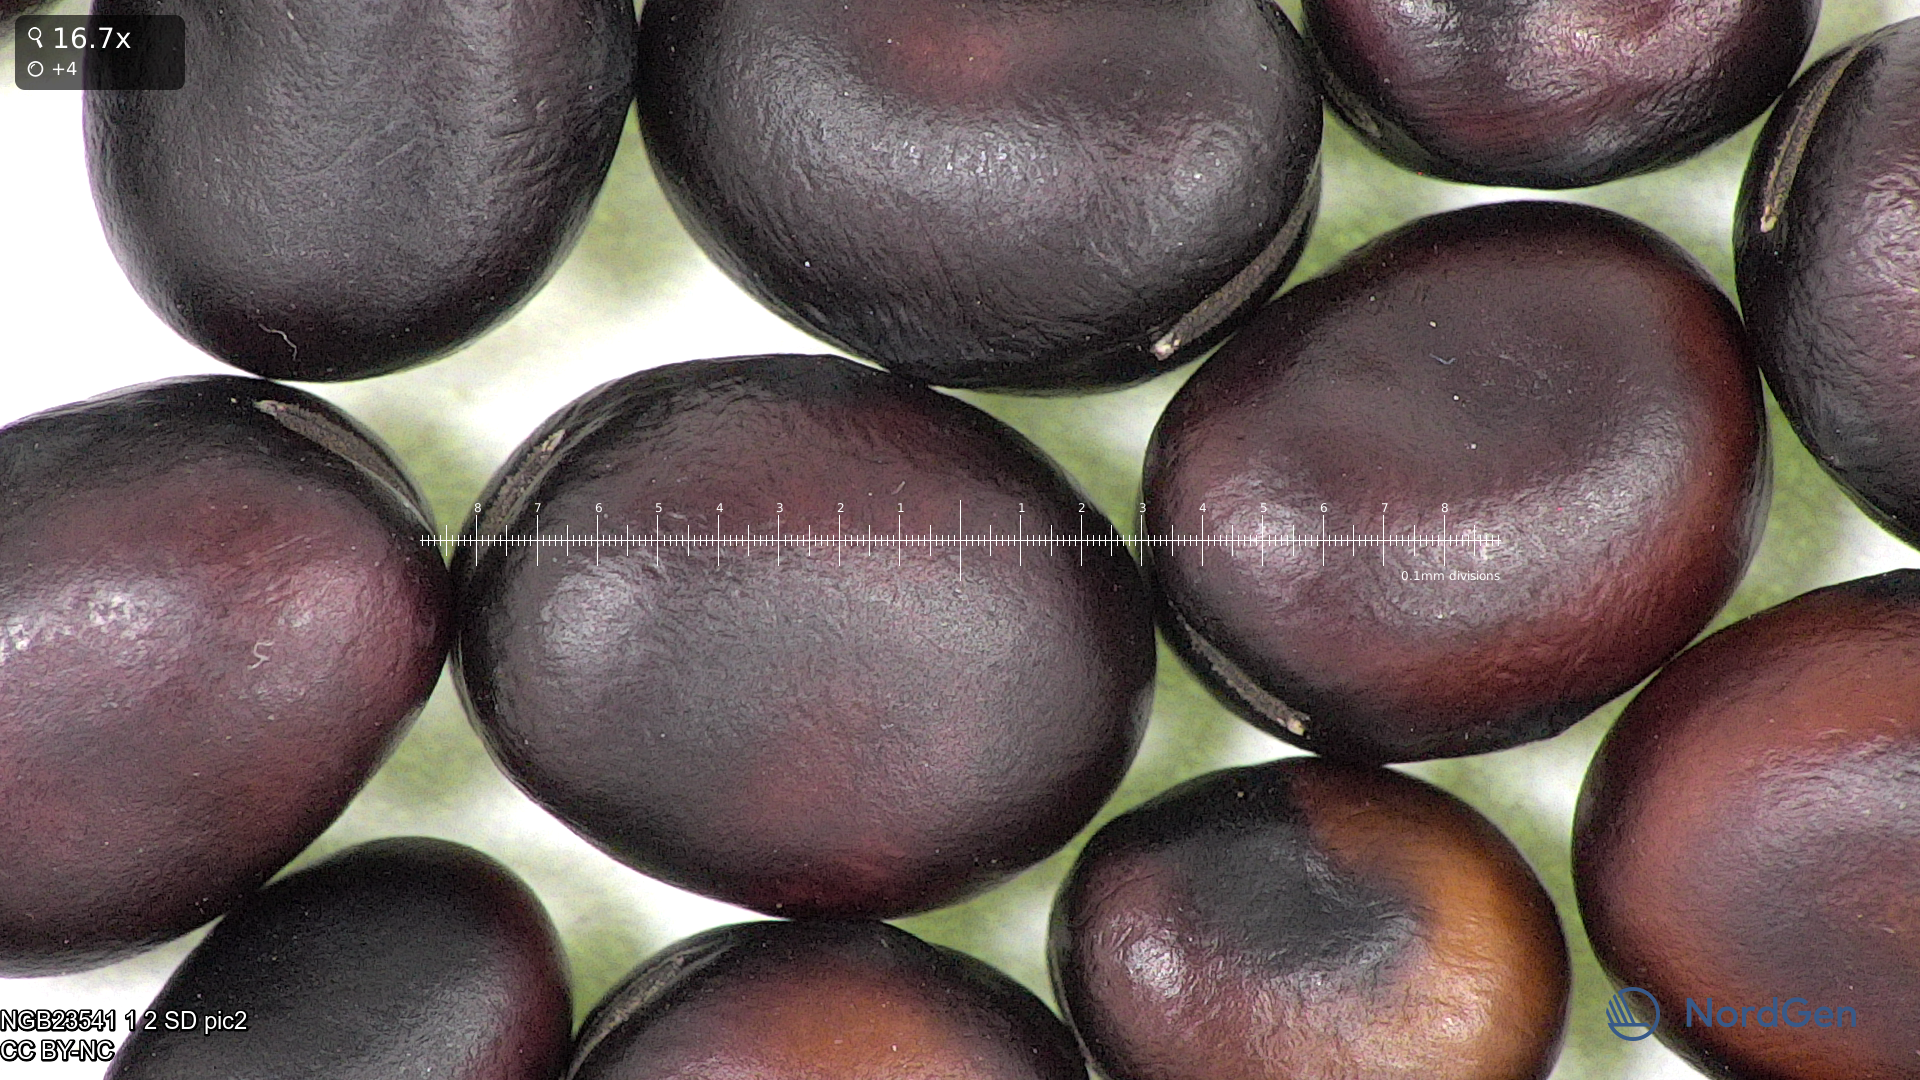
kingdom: Plantae
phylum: Tracheophyta
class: Magnoliopsida
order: Fabales
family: Fabaceae
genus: Vicia
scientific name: Vicia faba
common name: Broad bean
